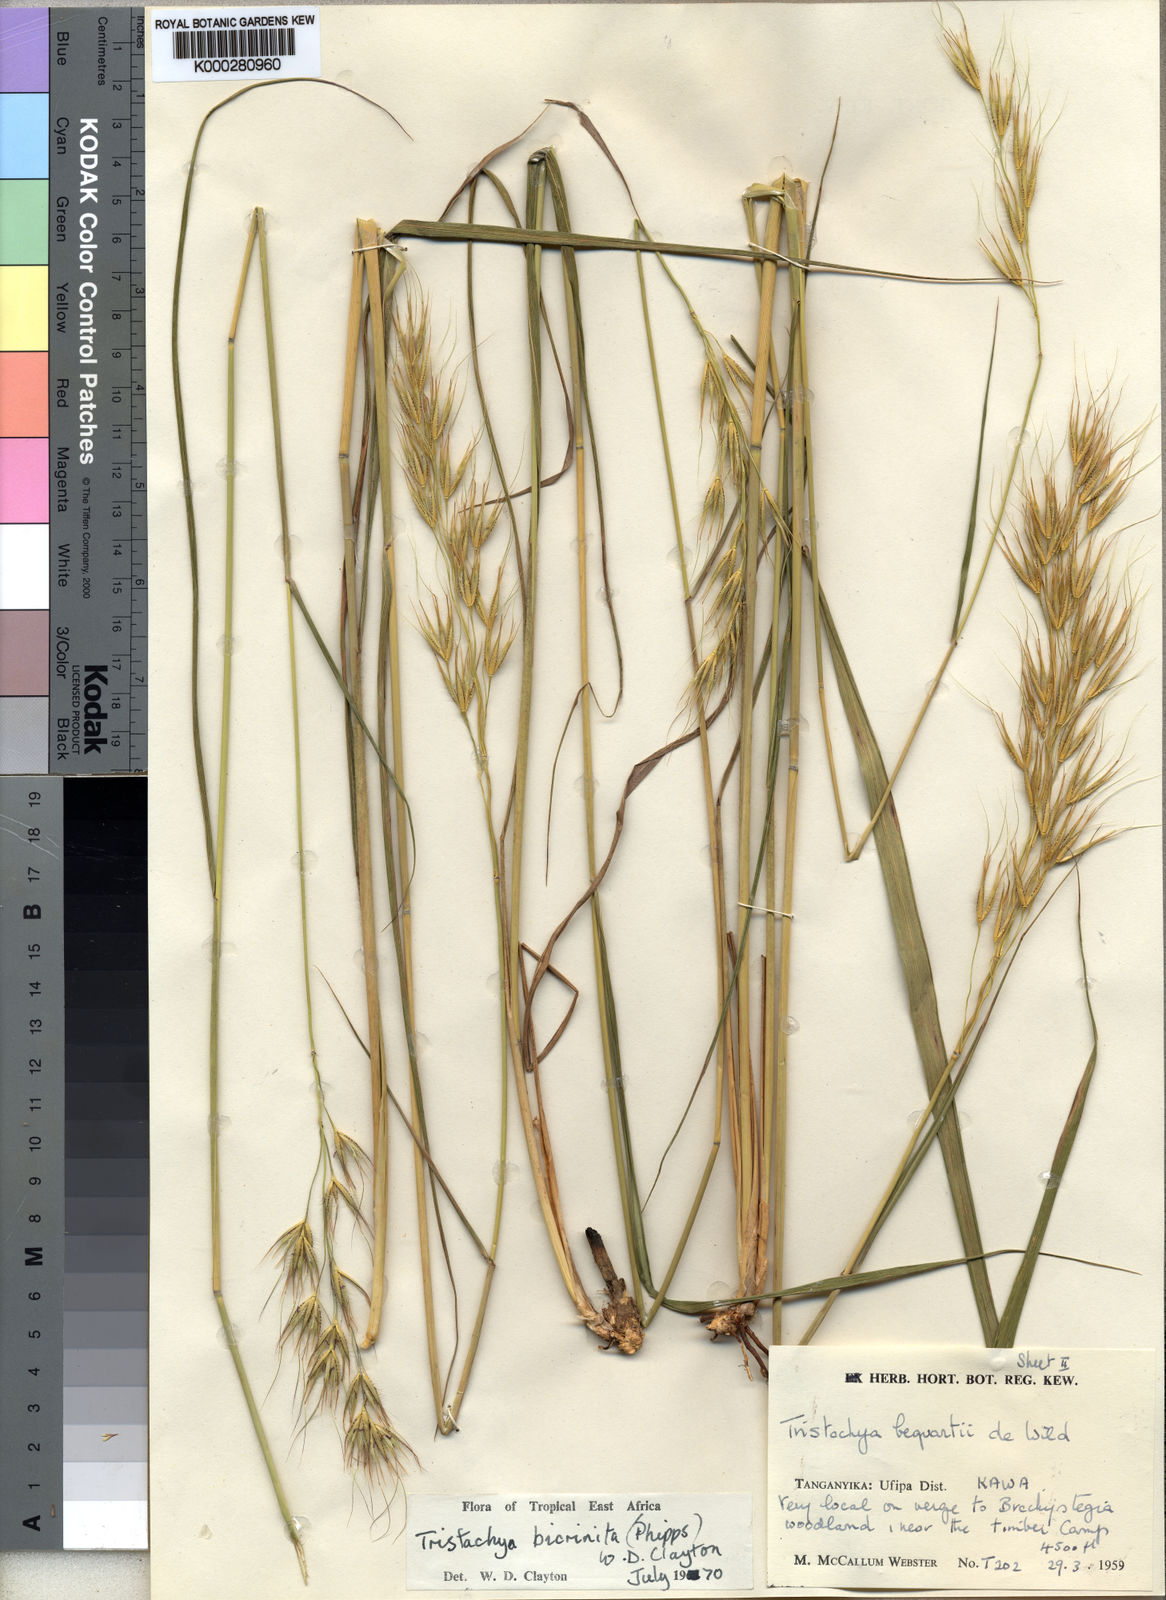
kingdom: Plantae
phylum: Tracheophyta
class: Liliopsida
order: Poales
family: Poaceae
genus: Tristachya
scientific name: Tristachya bicrinita
